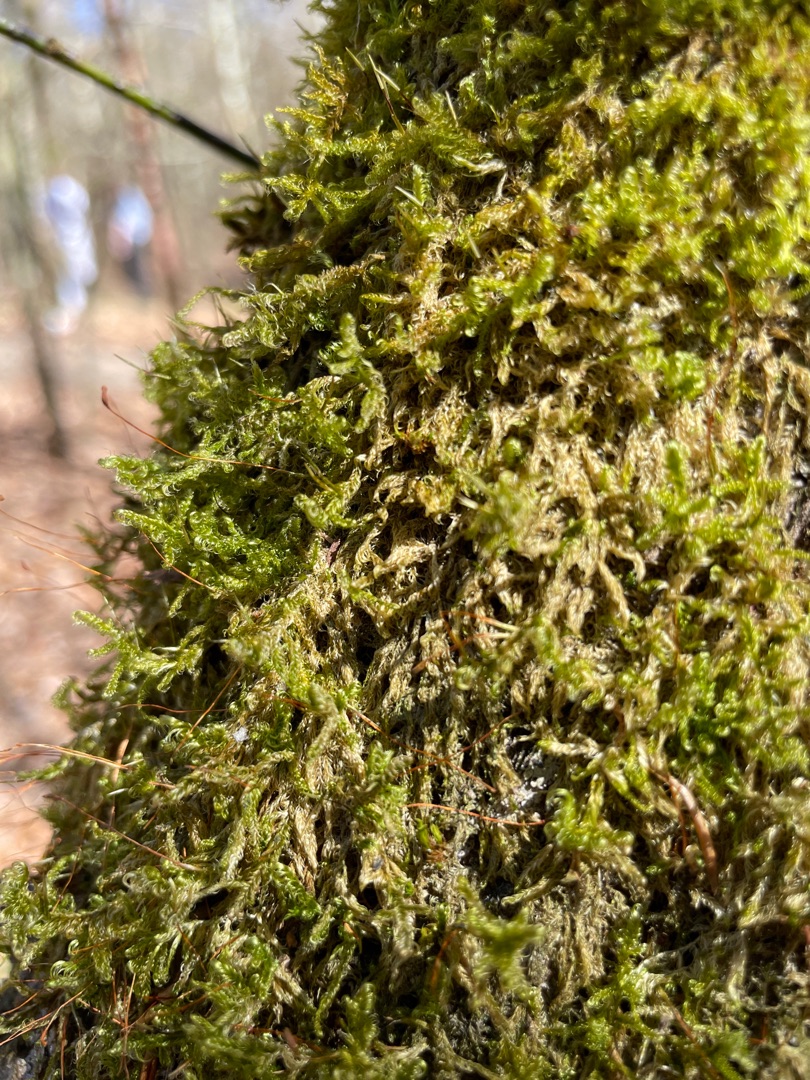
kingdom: Plantae
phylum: Bryophyta
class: Bryopsida
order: Hypnales
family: Hypnaceae
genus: Hypnum
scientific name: Hypnum cupressiforme
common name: Almindelig cypresmos
